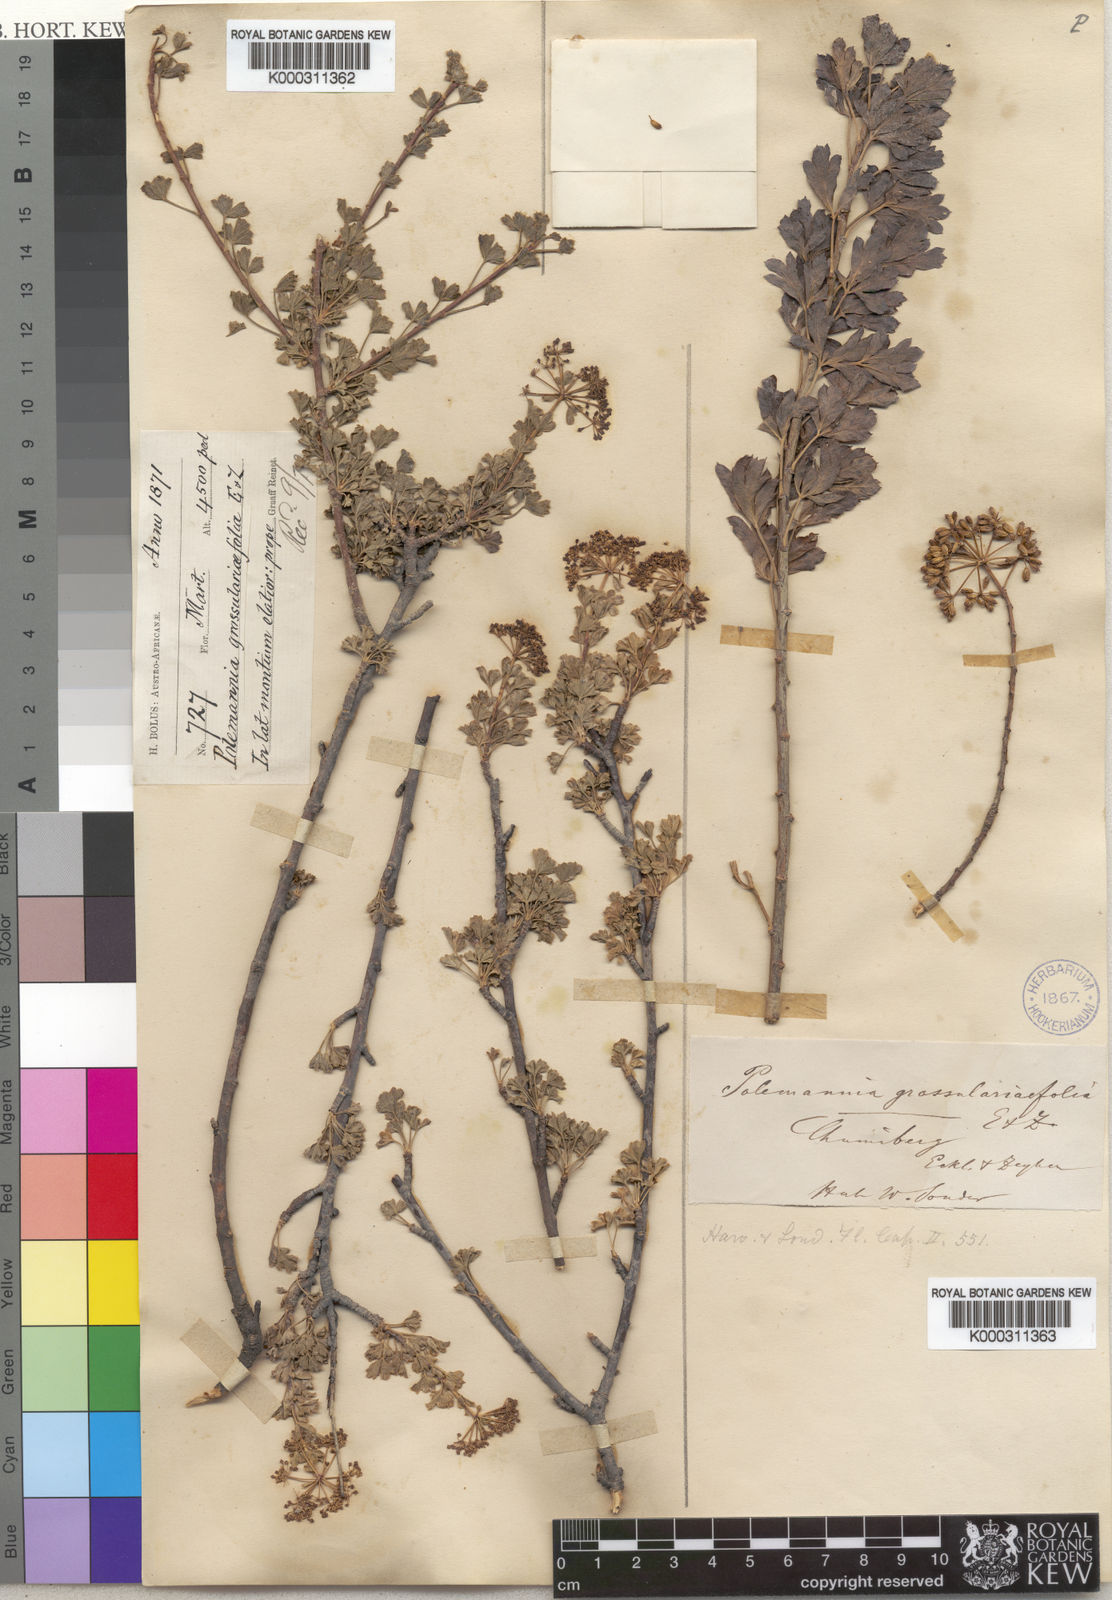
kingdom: Plantae
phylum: Tracheophyta
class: Magnoliopsida
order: Apiales
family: Apiaceae
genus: Polemannia
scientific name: Polemannia
